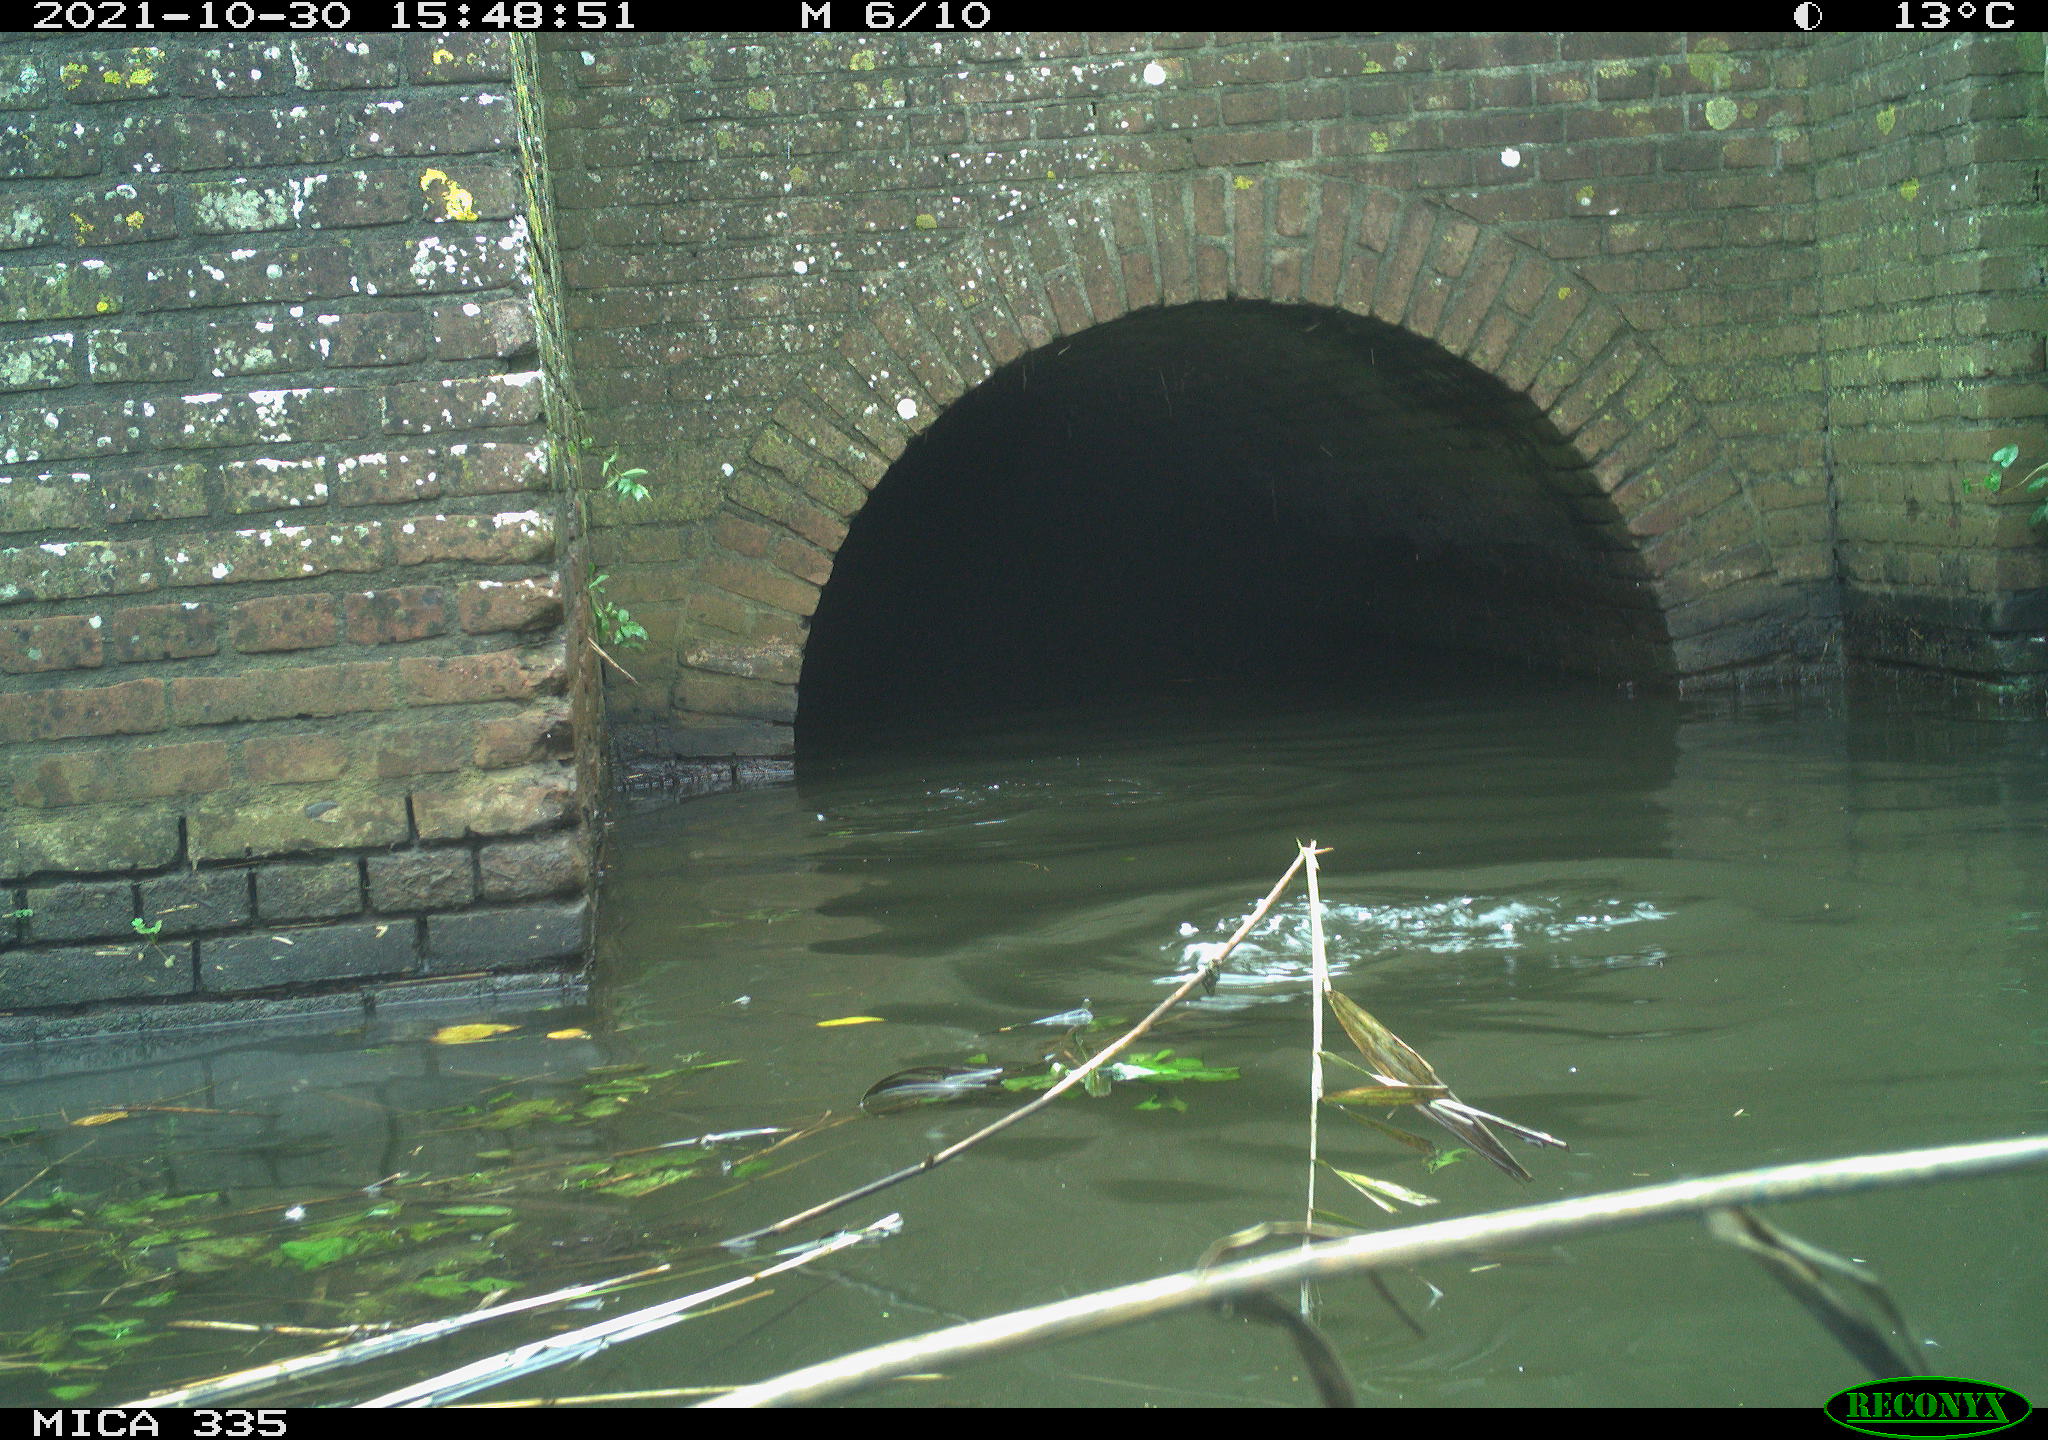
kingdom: Animalia
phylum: Chordata
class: Aves
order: Podicipediformes
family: Podicipedidae
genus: Podiceps
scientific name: Podiceps cristatus
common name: Great crested grebe
